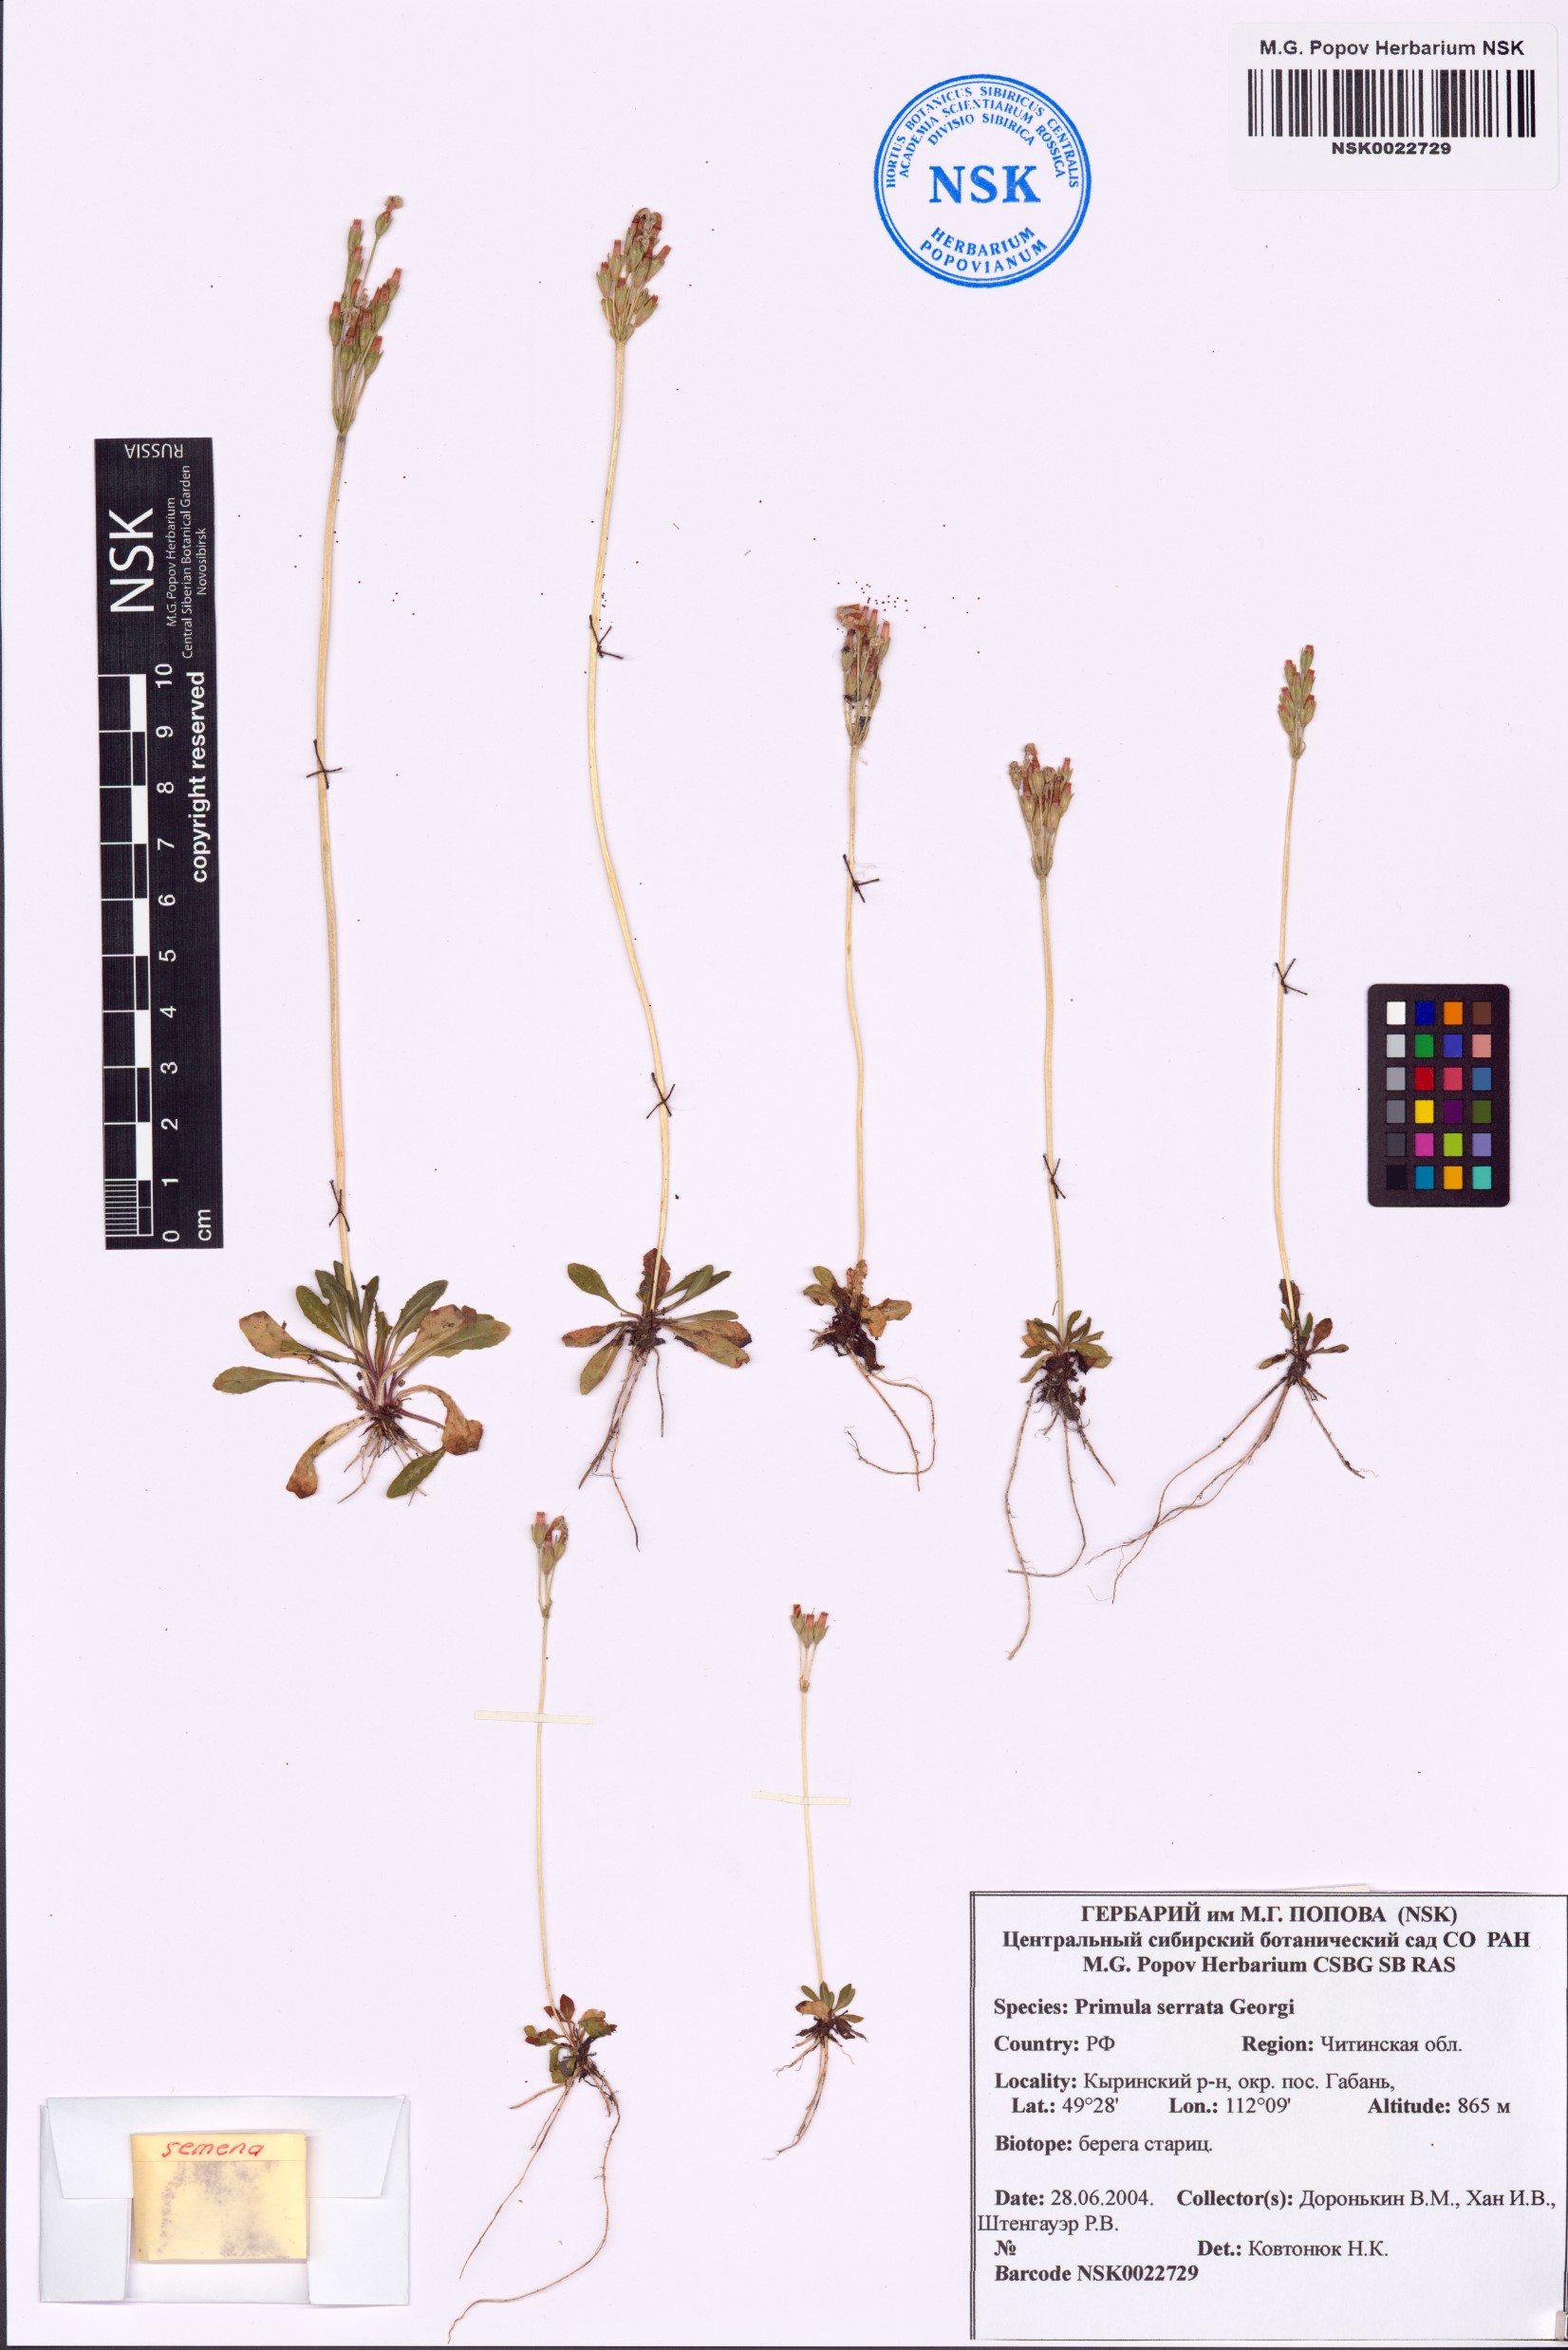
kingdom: Plantae
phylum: Tracheophyta
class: Magnoliopsida
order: Ericales
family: Primulaceae
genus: Primula
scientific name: Primula serrata
